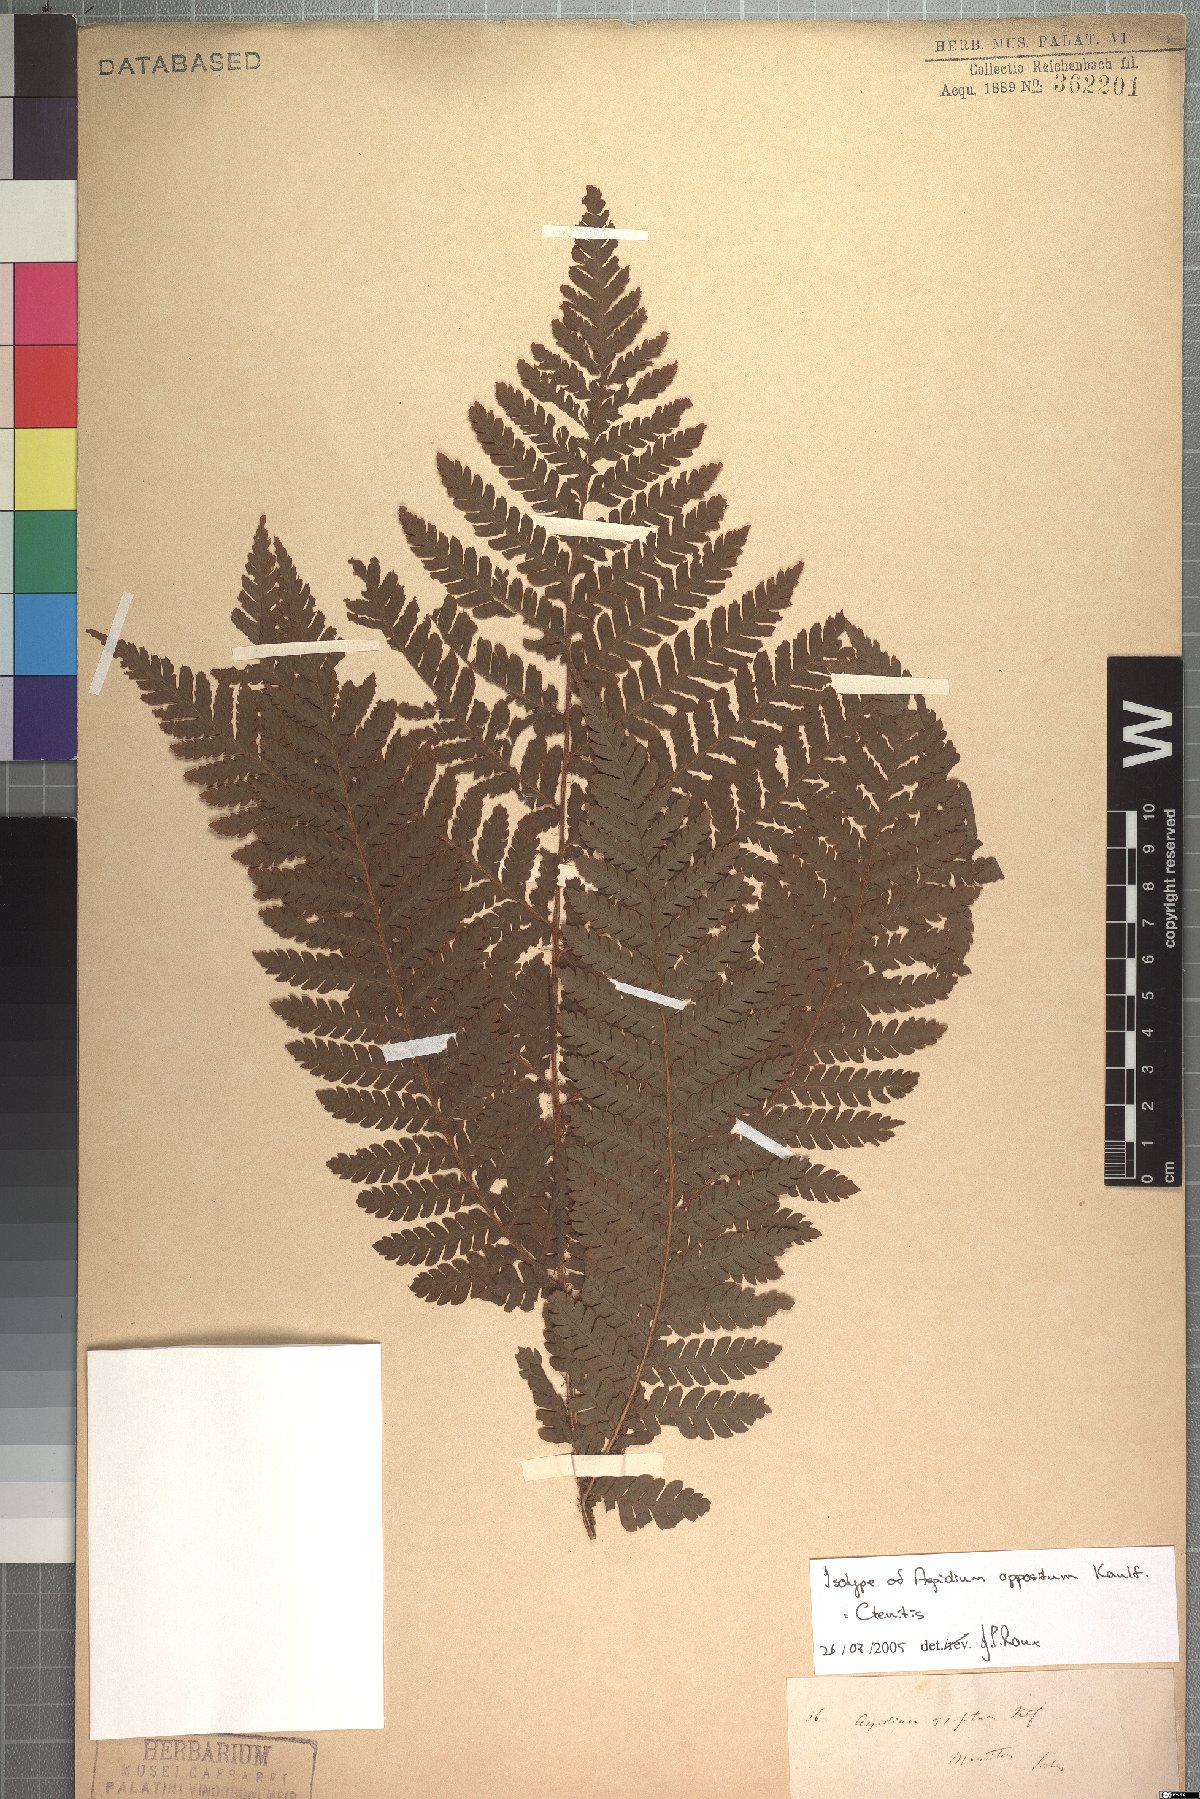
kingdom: Plantae
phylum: Tracheophyta
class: Polypodiopsida
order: Polypodiales
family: Dryopteridaceae
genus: Ctenitis
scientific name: Ctenitis
